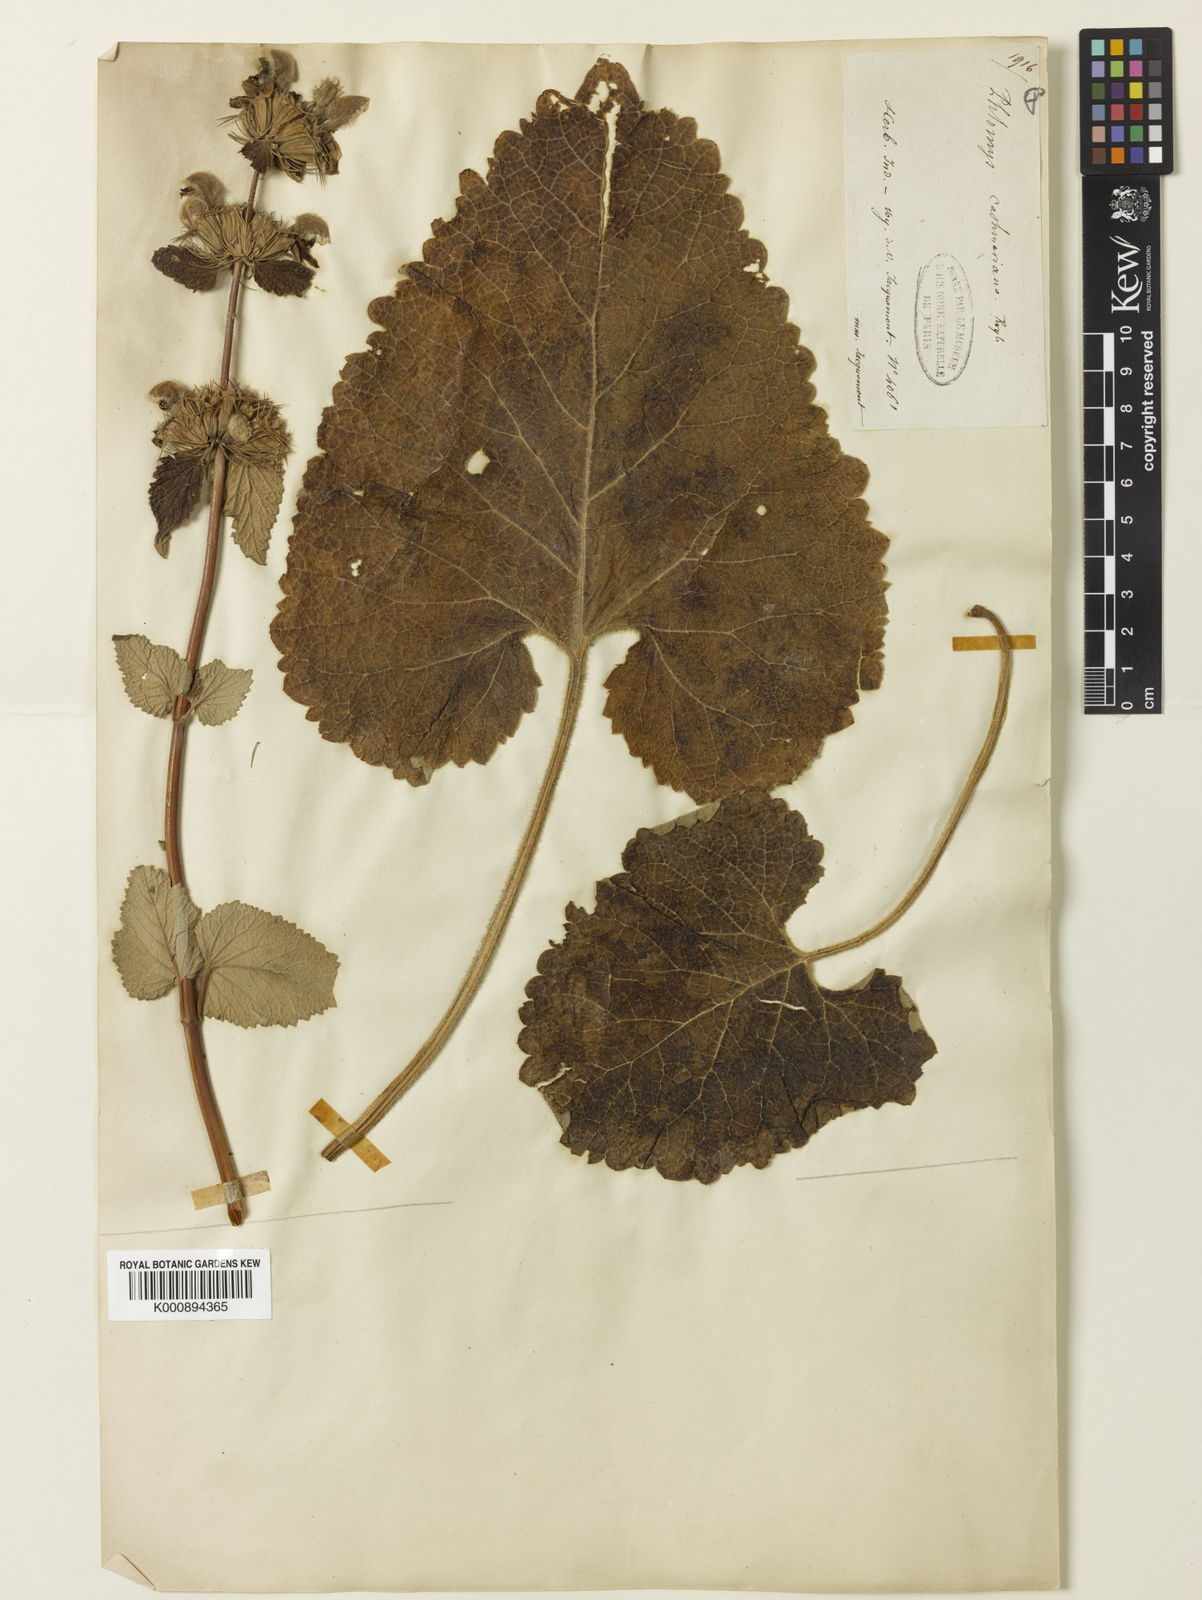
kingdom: Plantae
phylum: Tracheophyta
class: Magnoliopsida
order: Lamiales
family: Lamiaceae
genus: Phlomoides
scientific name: Phlomoides spectabilis
